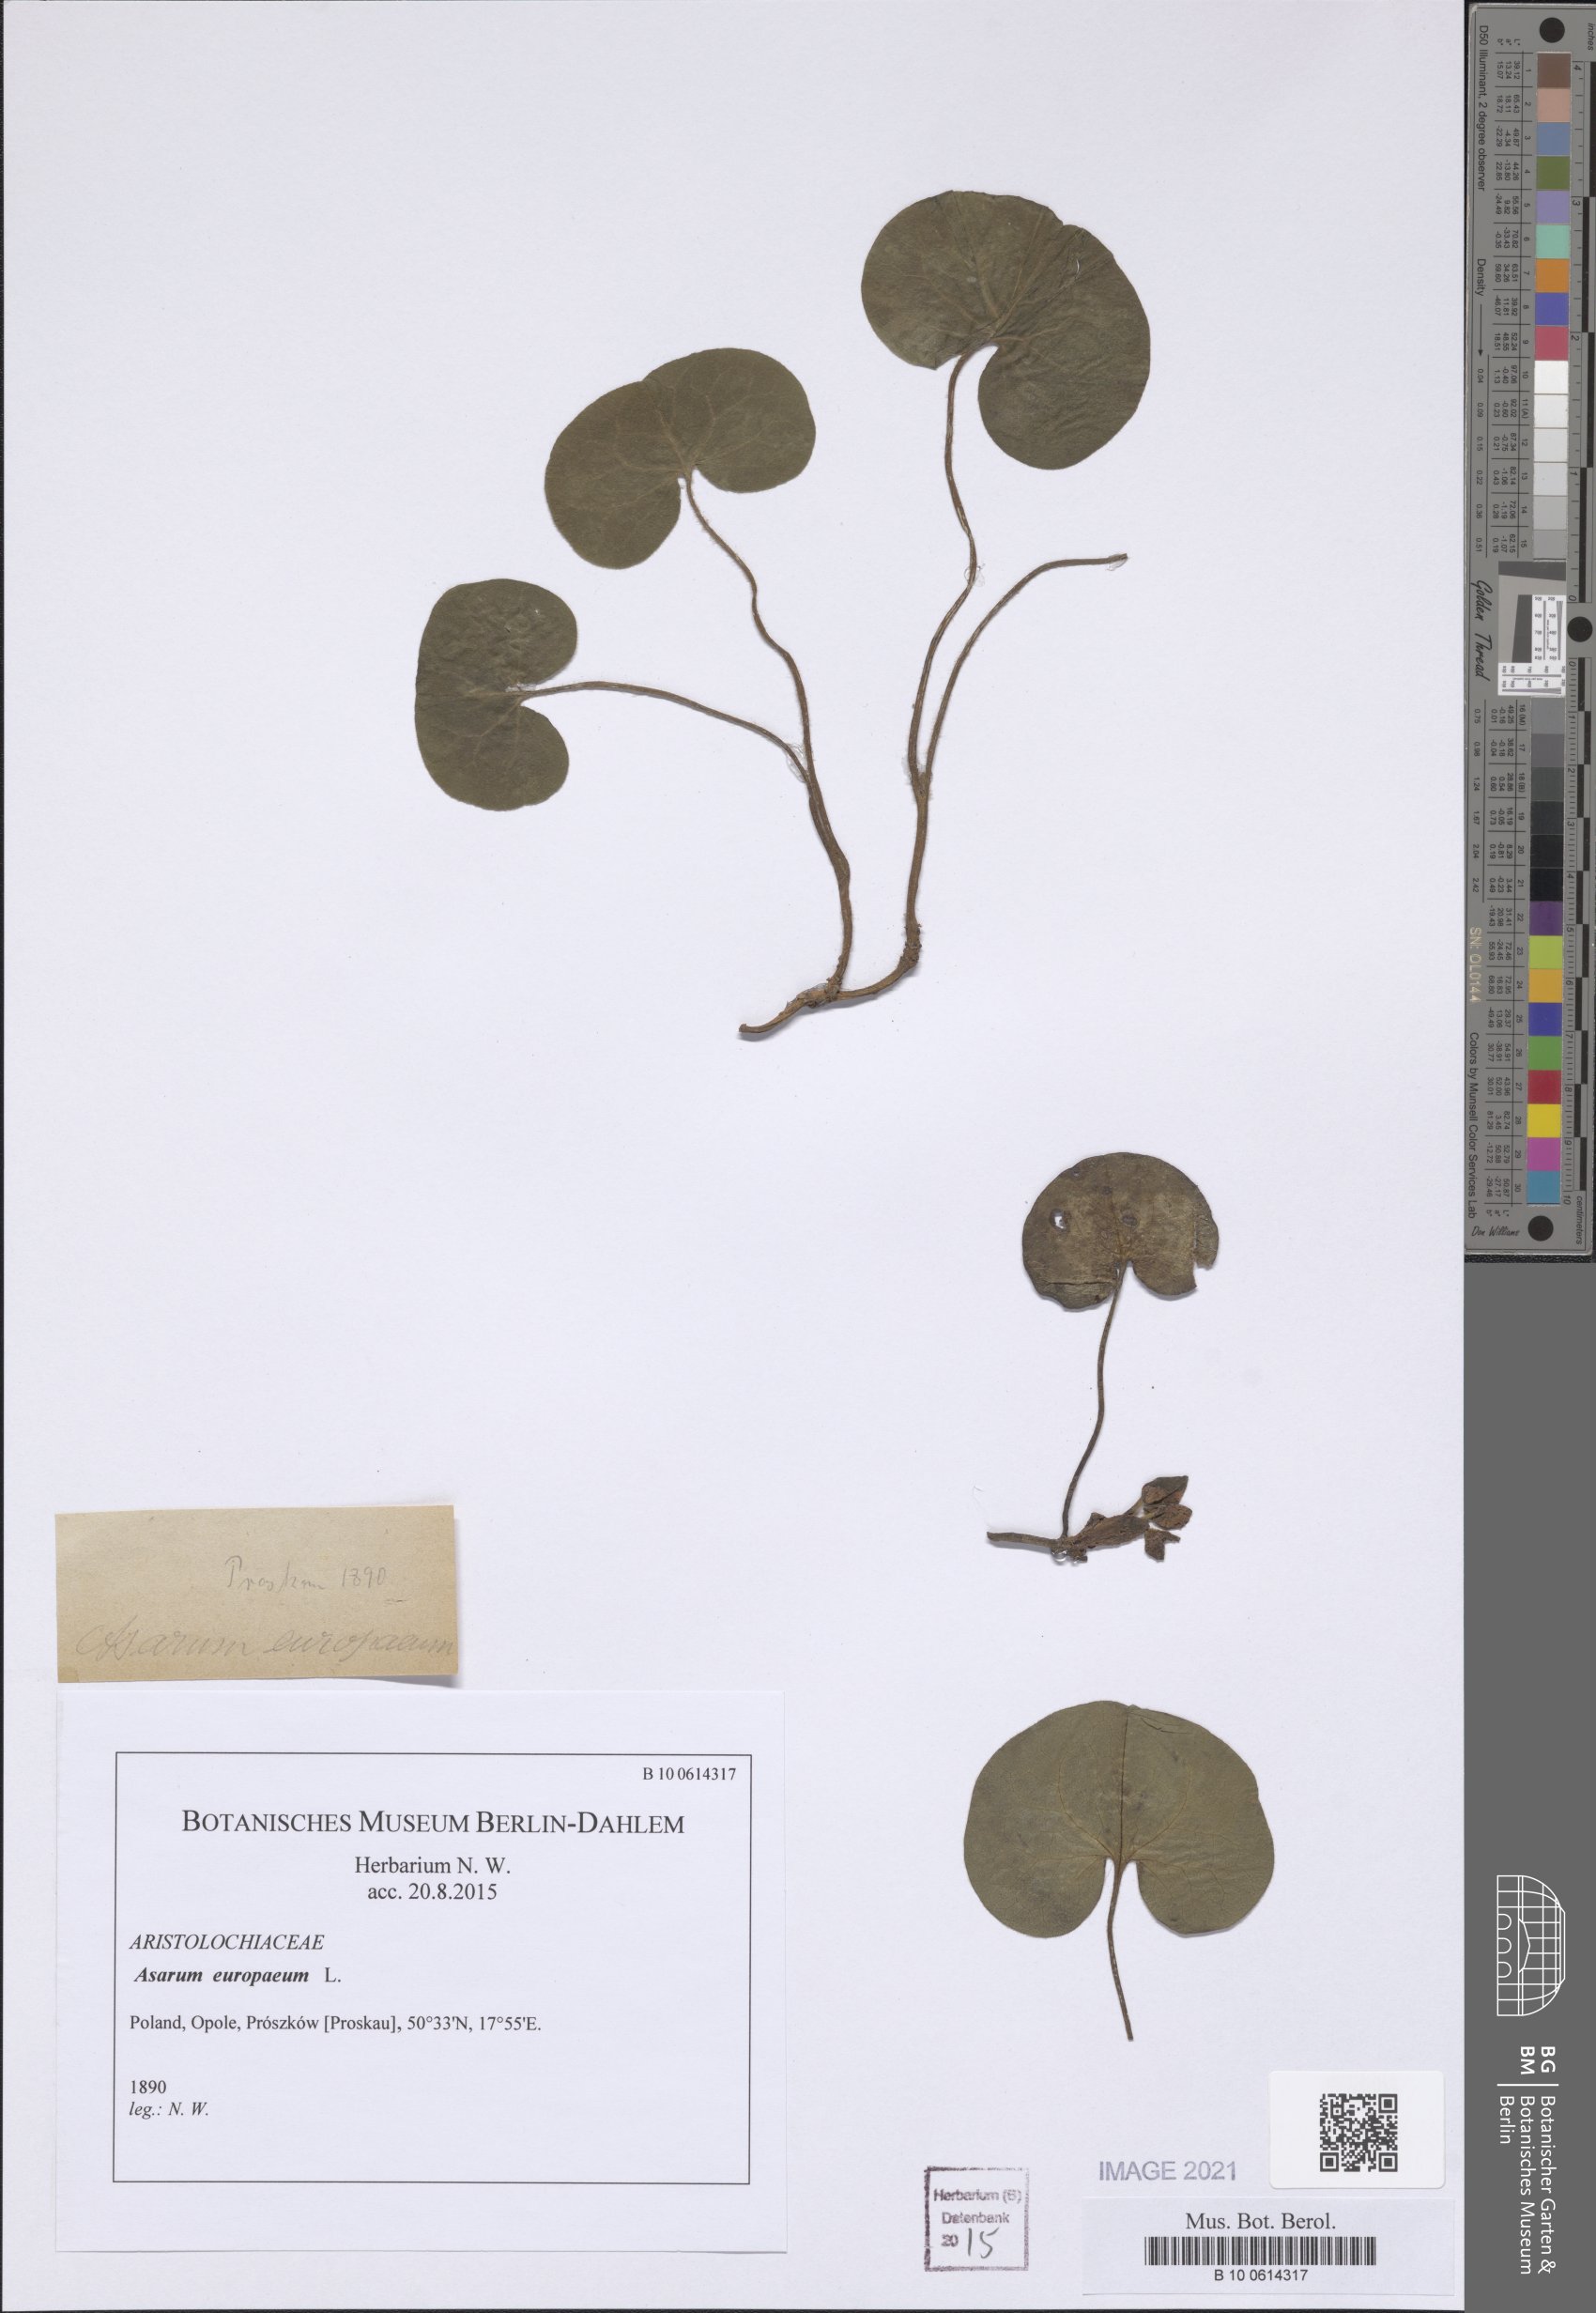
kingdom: Plantae
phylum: Tracheophyta
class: Magnoliopsida
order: Piperales
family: Aristolochiaceae
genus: Asarum
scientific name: Asarum europaeum
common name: Asarabacca
